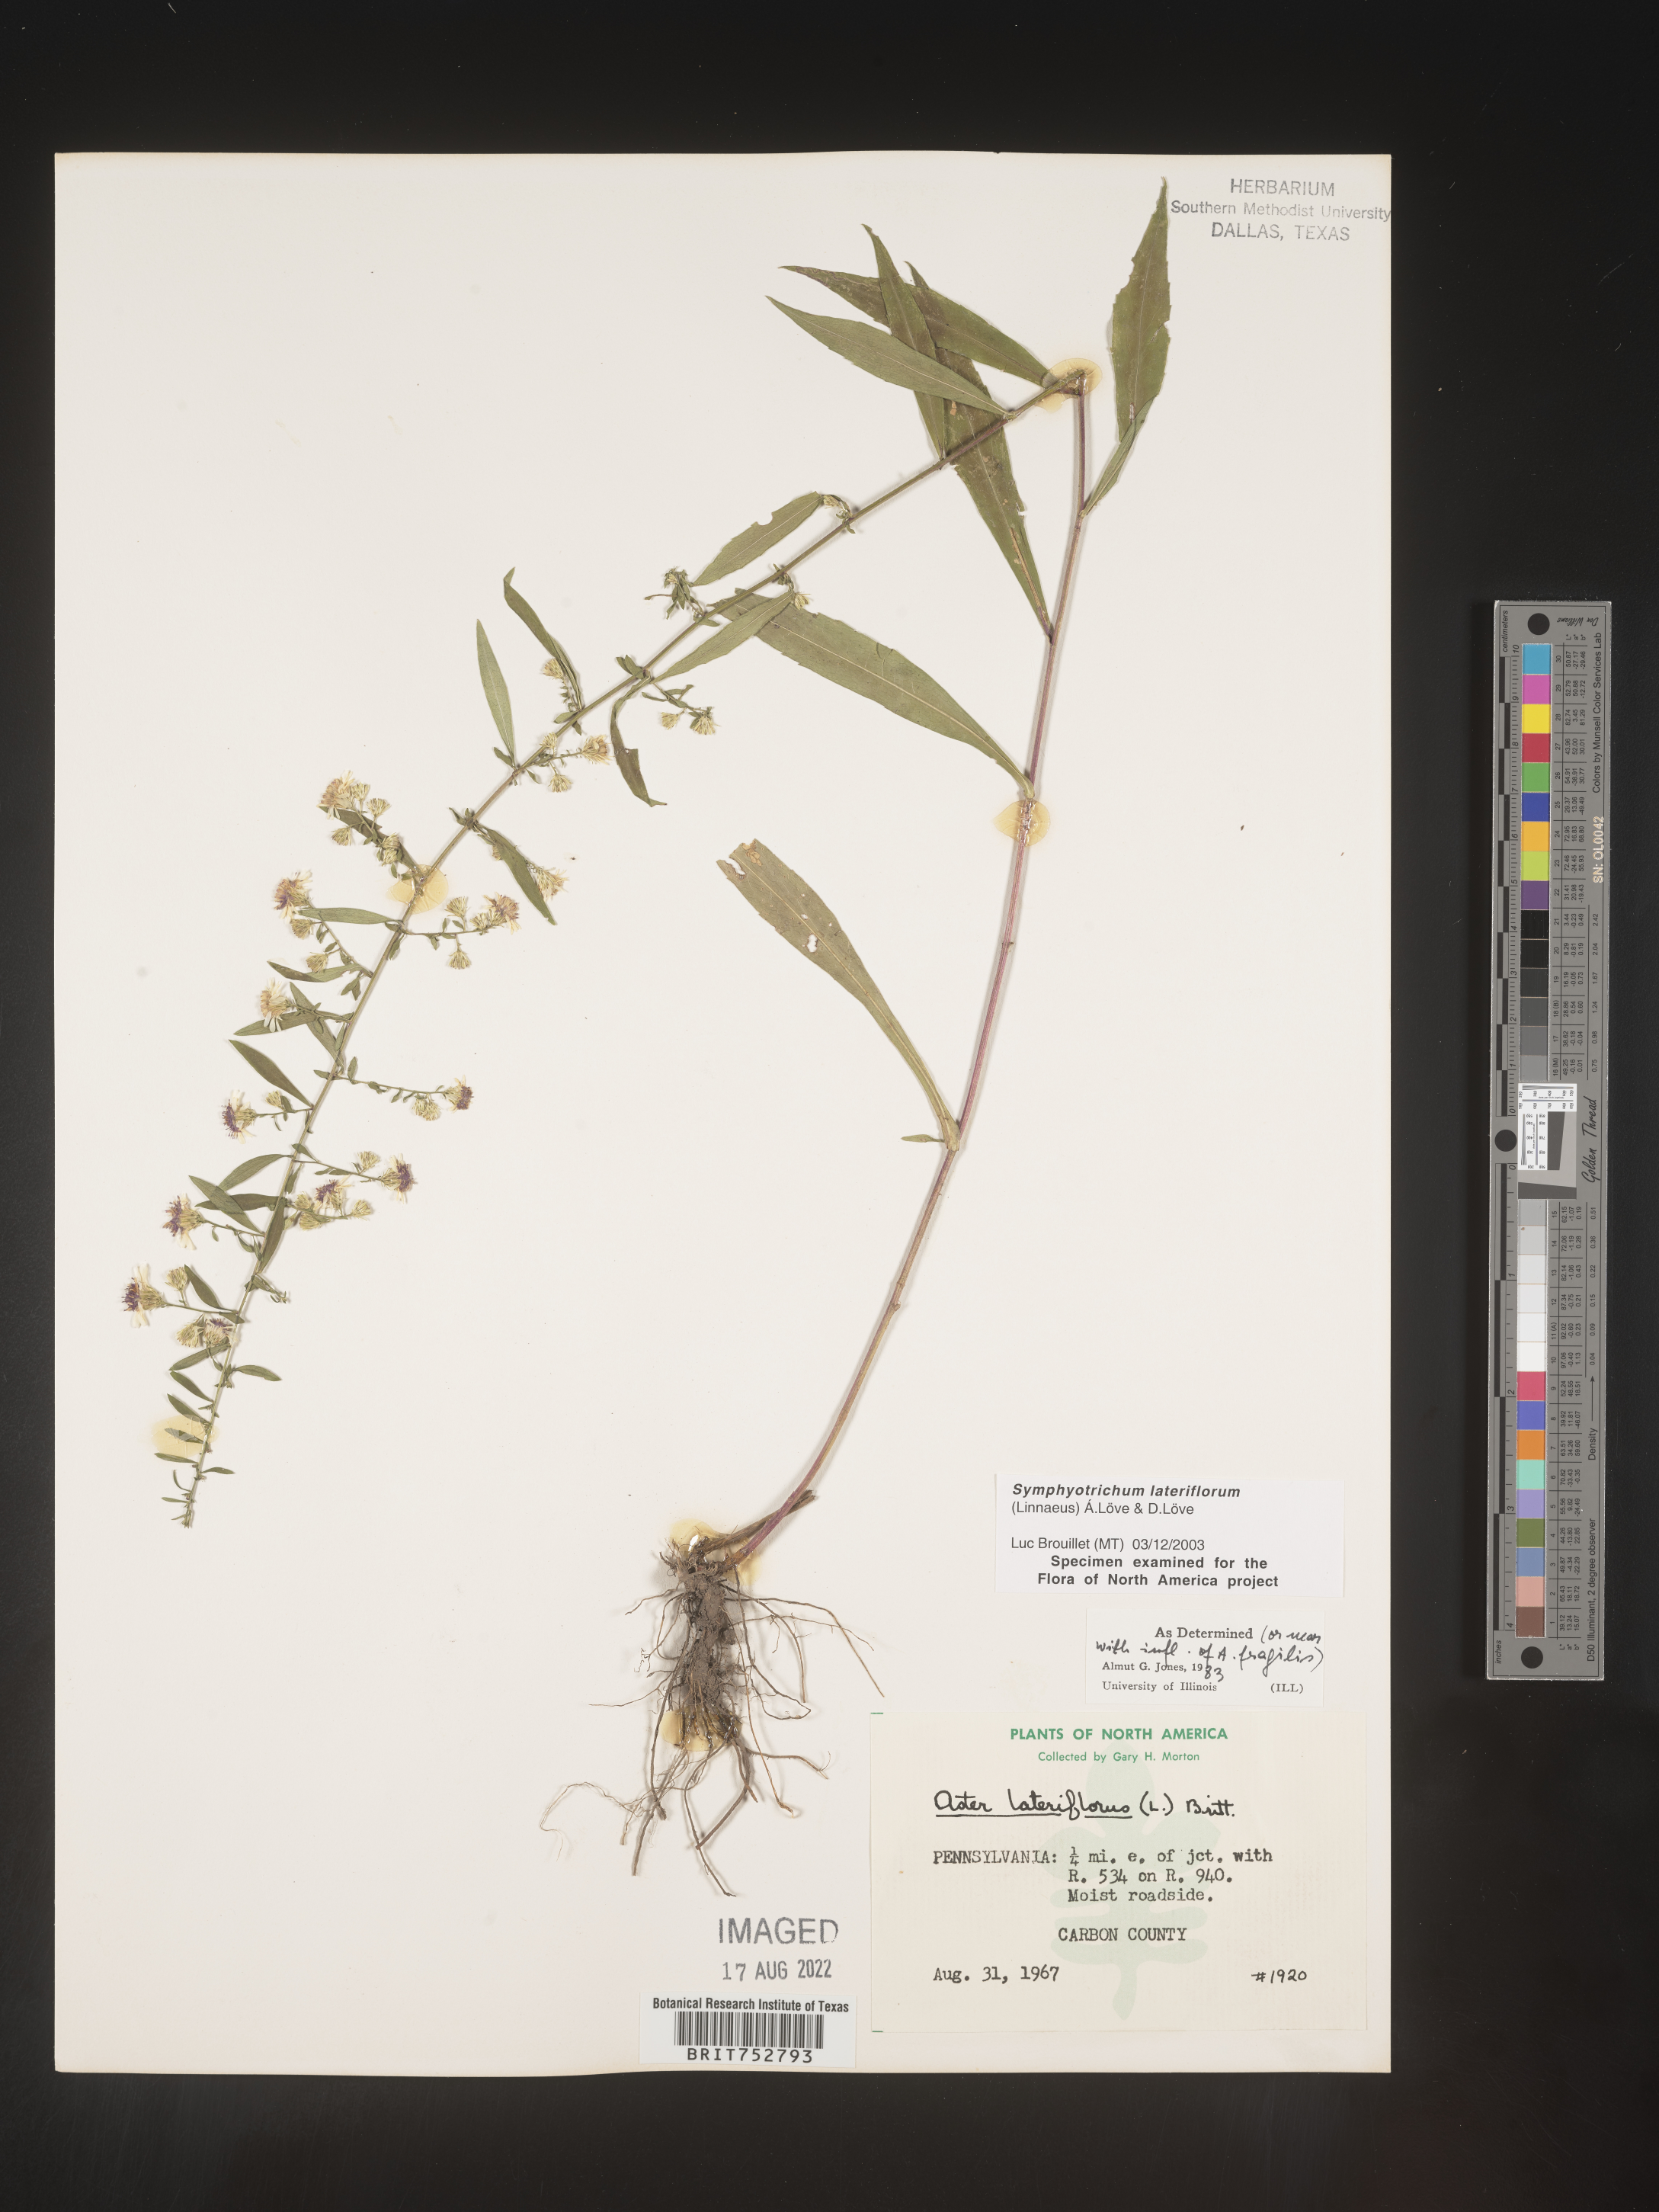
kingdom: Plantae
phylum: Tracheophyta
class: Magnoliopsida
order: Asterales
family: Asteraceae
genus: Symphyotrichum
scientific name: Symphyotrichum lateriflorum
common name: Calico aster
